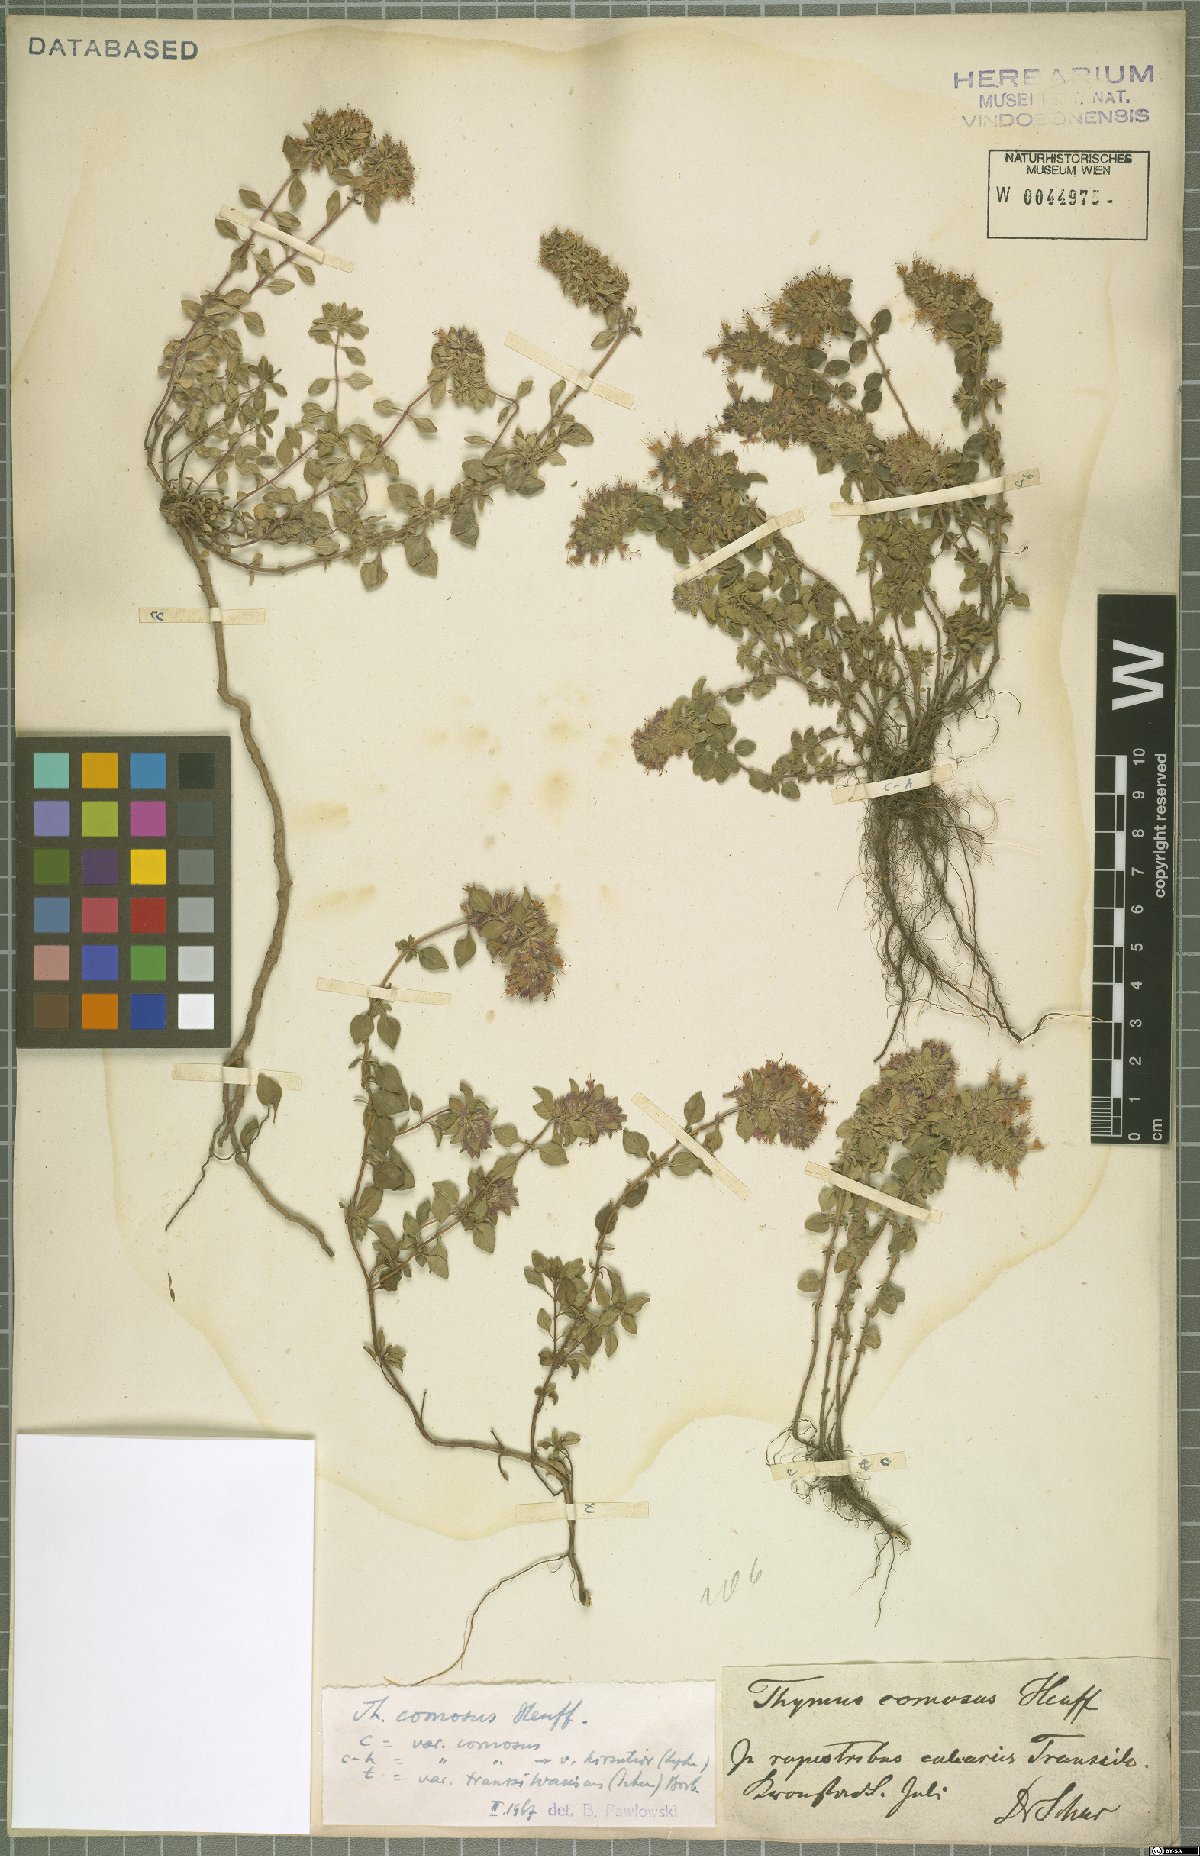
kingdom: Plantae
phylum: Tracheophyta
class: Magnoliopsida
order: Lamiales
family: Lamiaceae
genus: Thymus
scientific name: Thymus comosus
